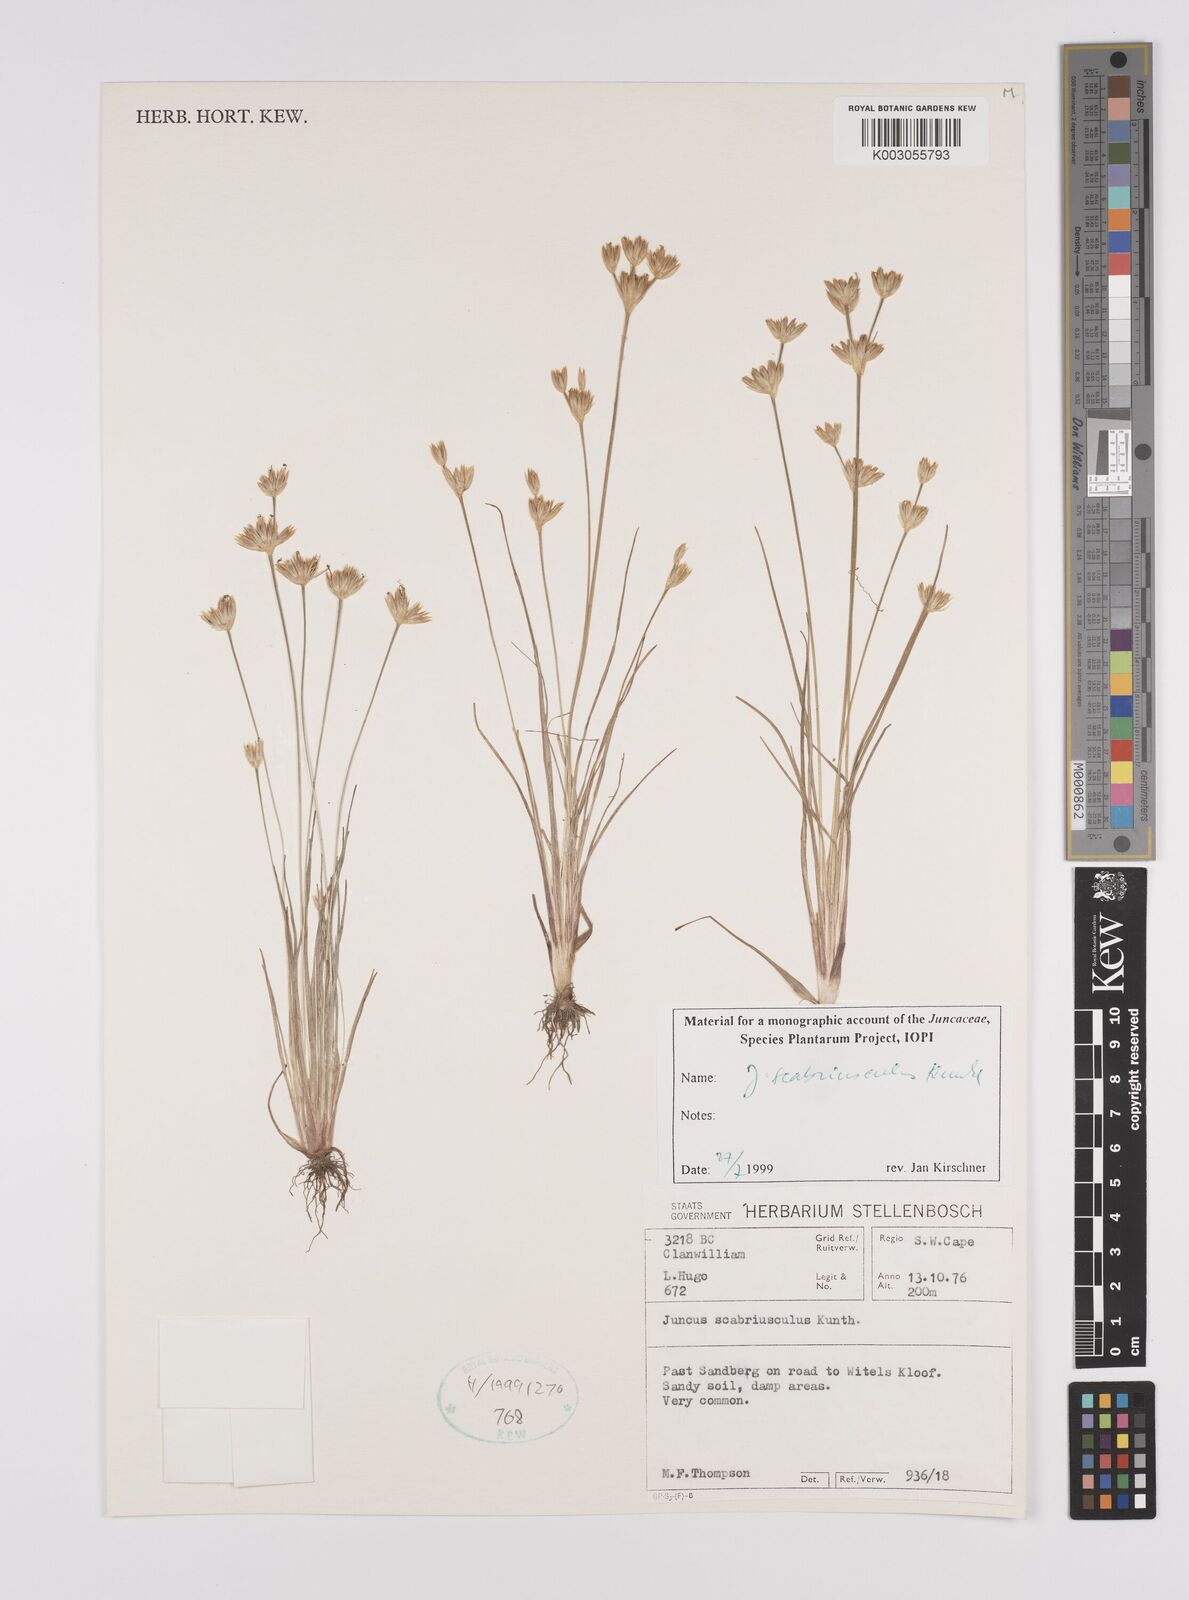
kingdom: Plantae
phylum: Tracheophyta
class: Liliopsida
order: Poales
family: Juncaceae
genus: Juncus
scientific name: Juncus scabriusculus
